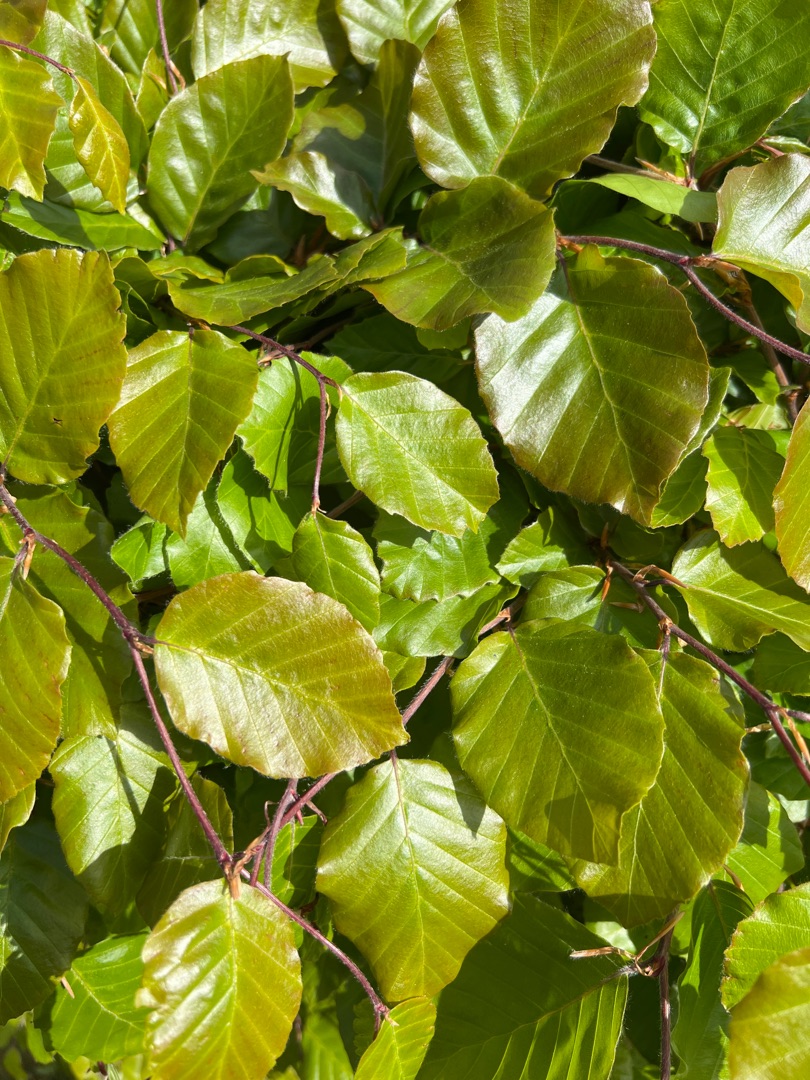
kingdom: Plantae
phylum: Tracheophyta
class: Magnoliopsida
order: Fagales
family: Fagaceae
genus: Fagus
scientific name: Fagus sylvatica
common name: Bøg
